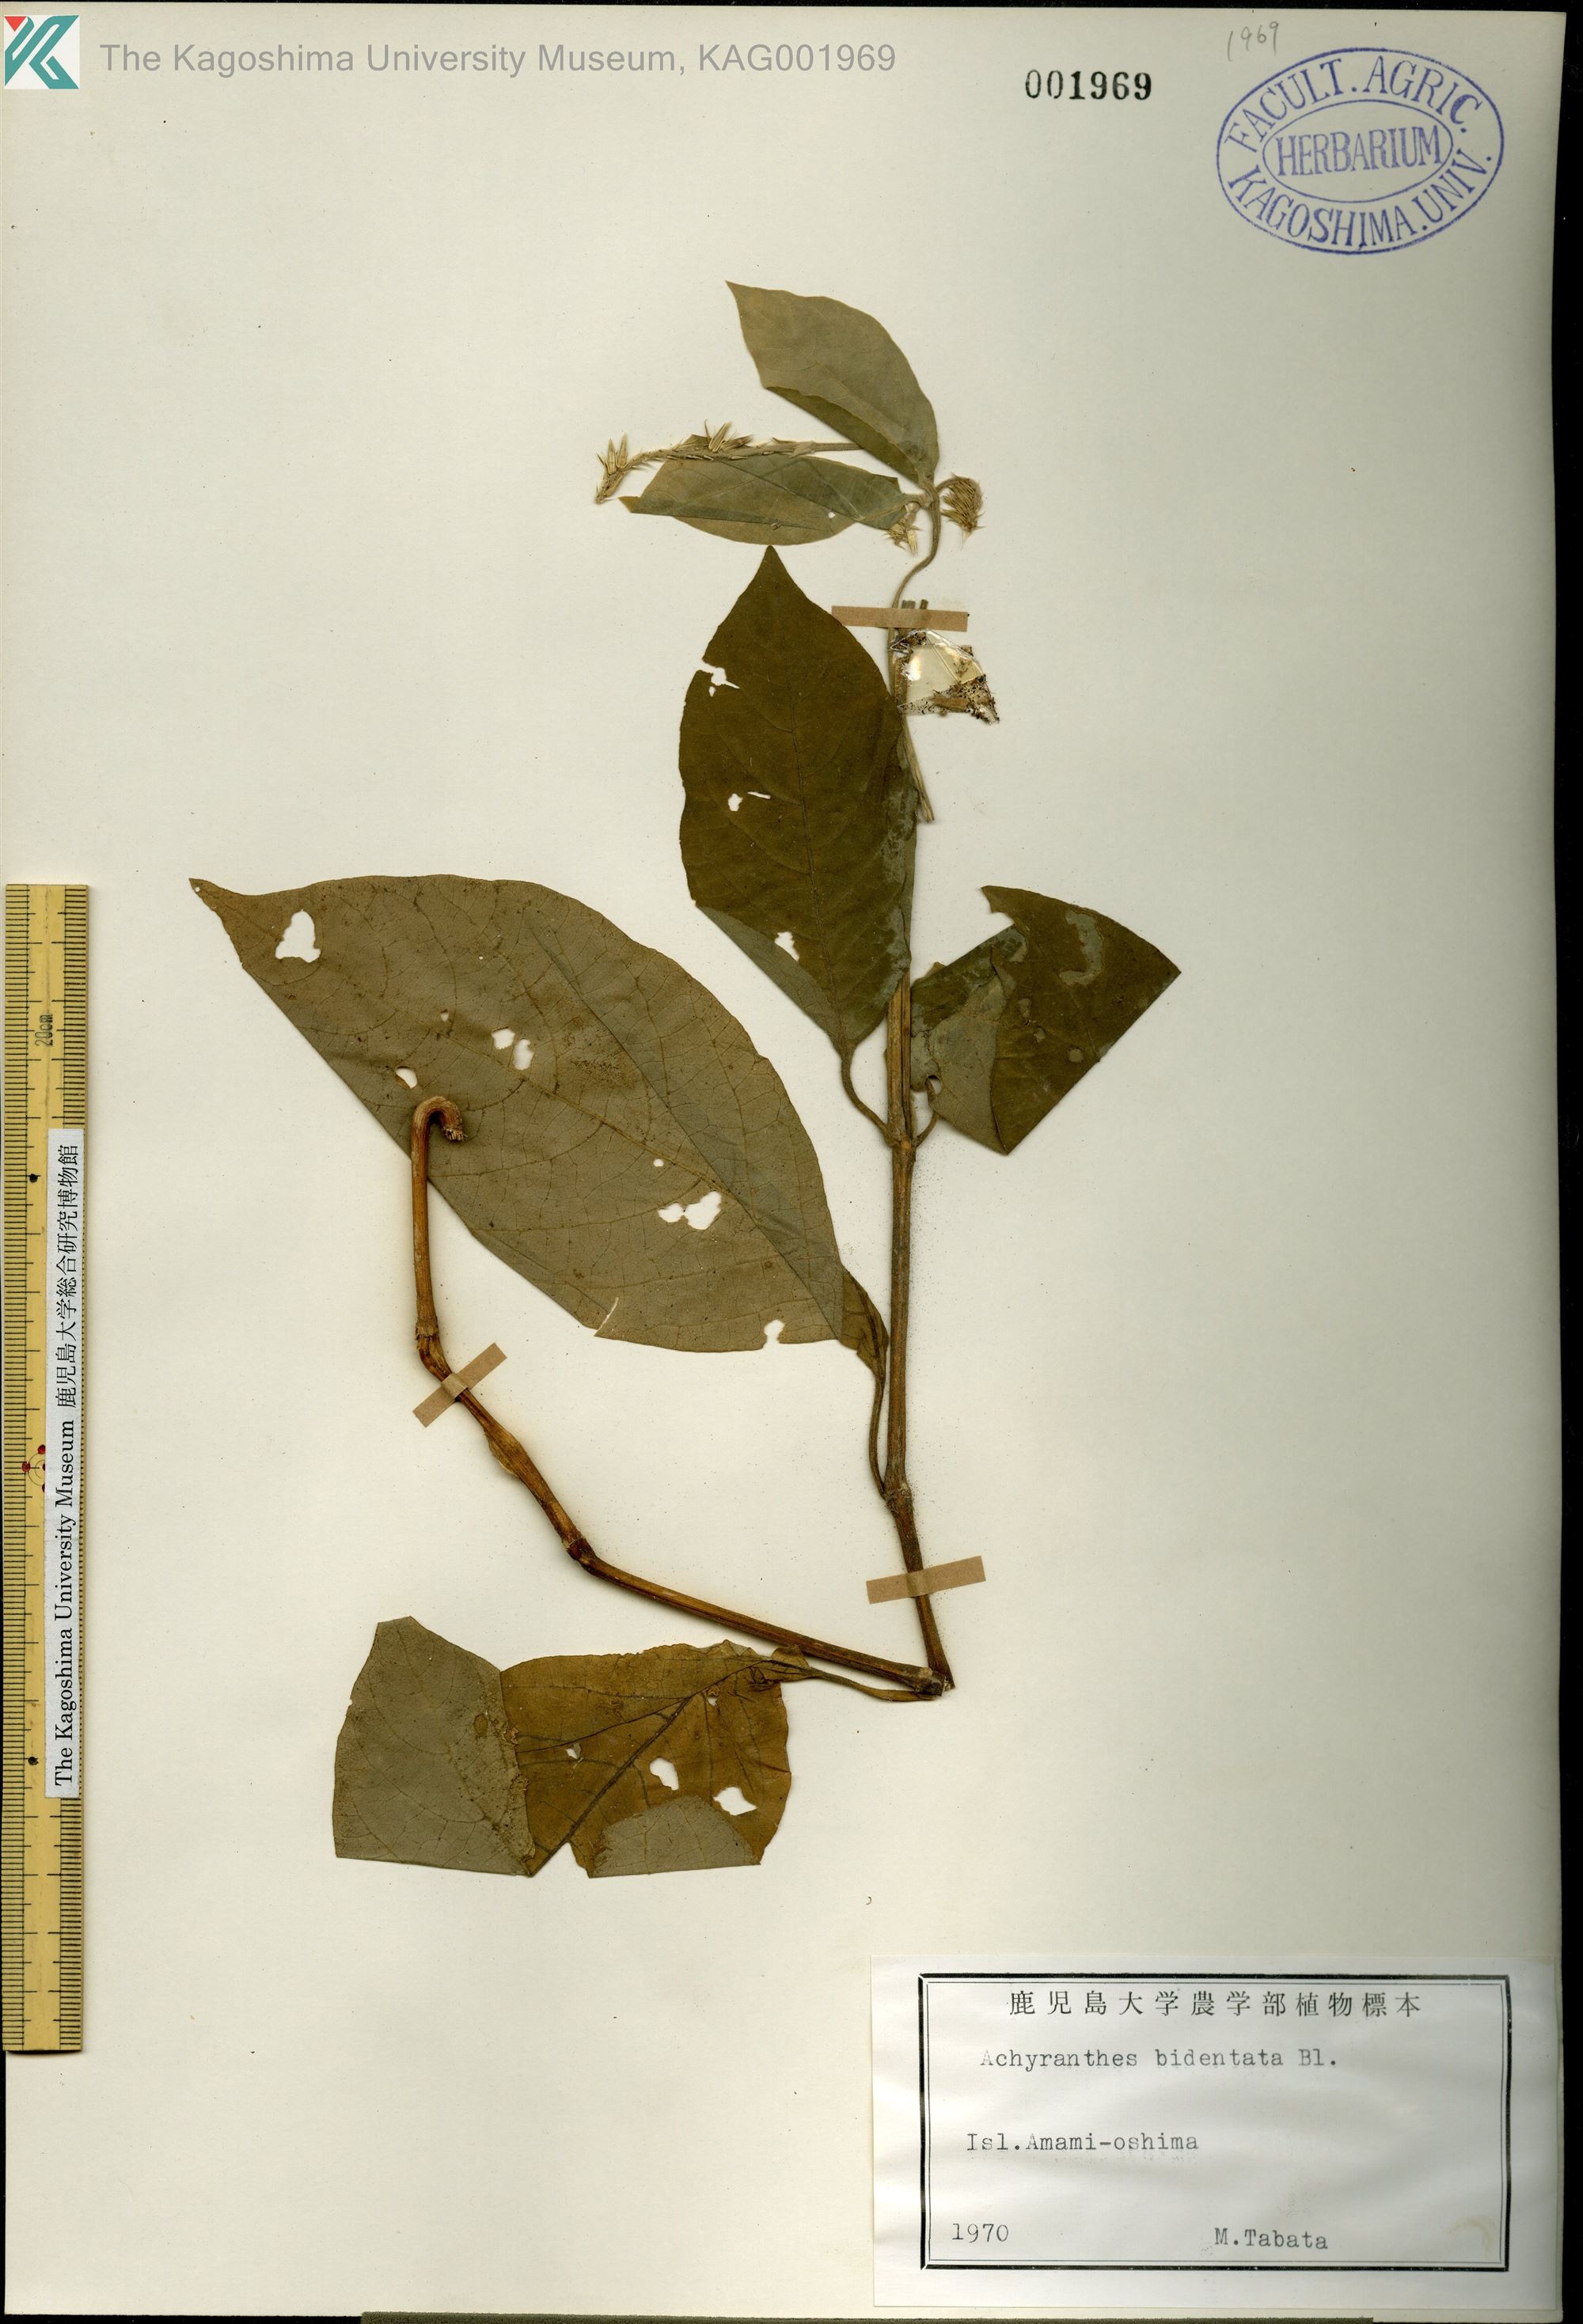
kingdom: Plantae
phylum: Tracheophyta
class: Magnoliopsida
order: Caryophyllales
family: Amaranthaceae
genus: Achyranthes
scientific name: Achyranthes bidentata
